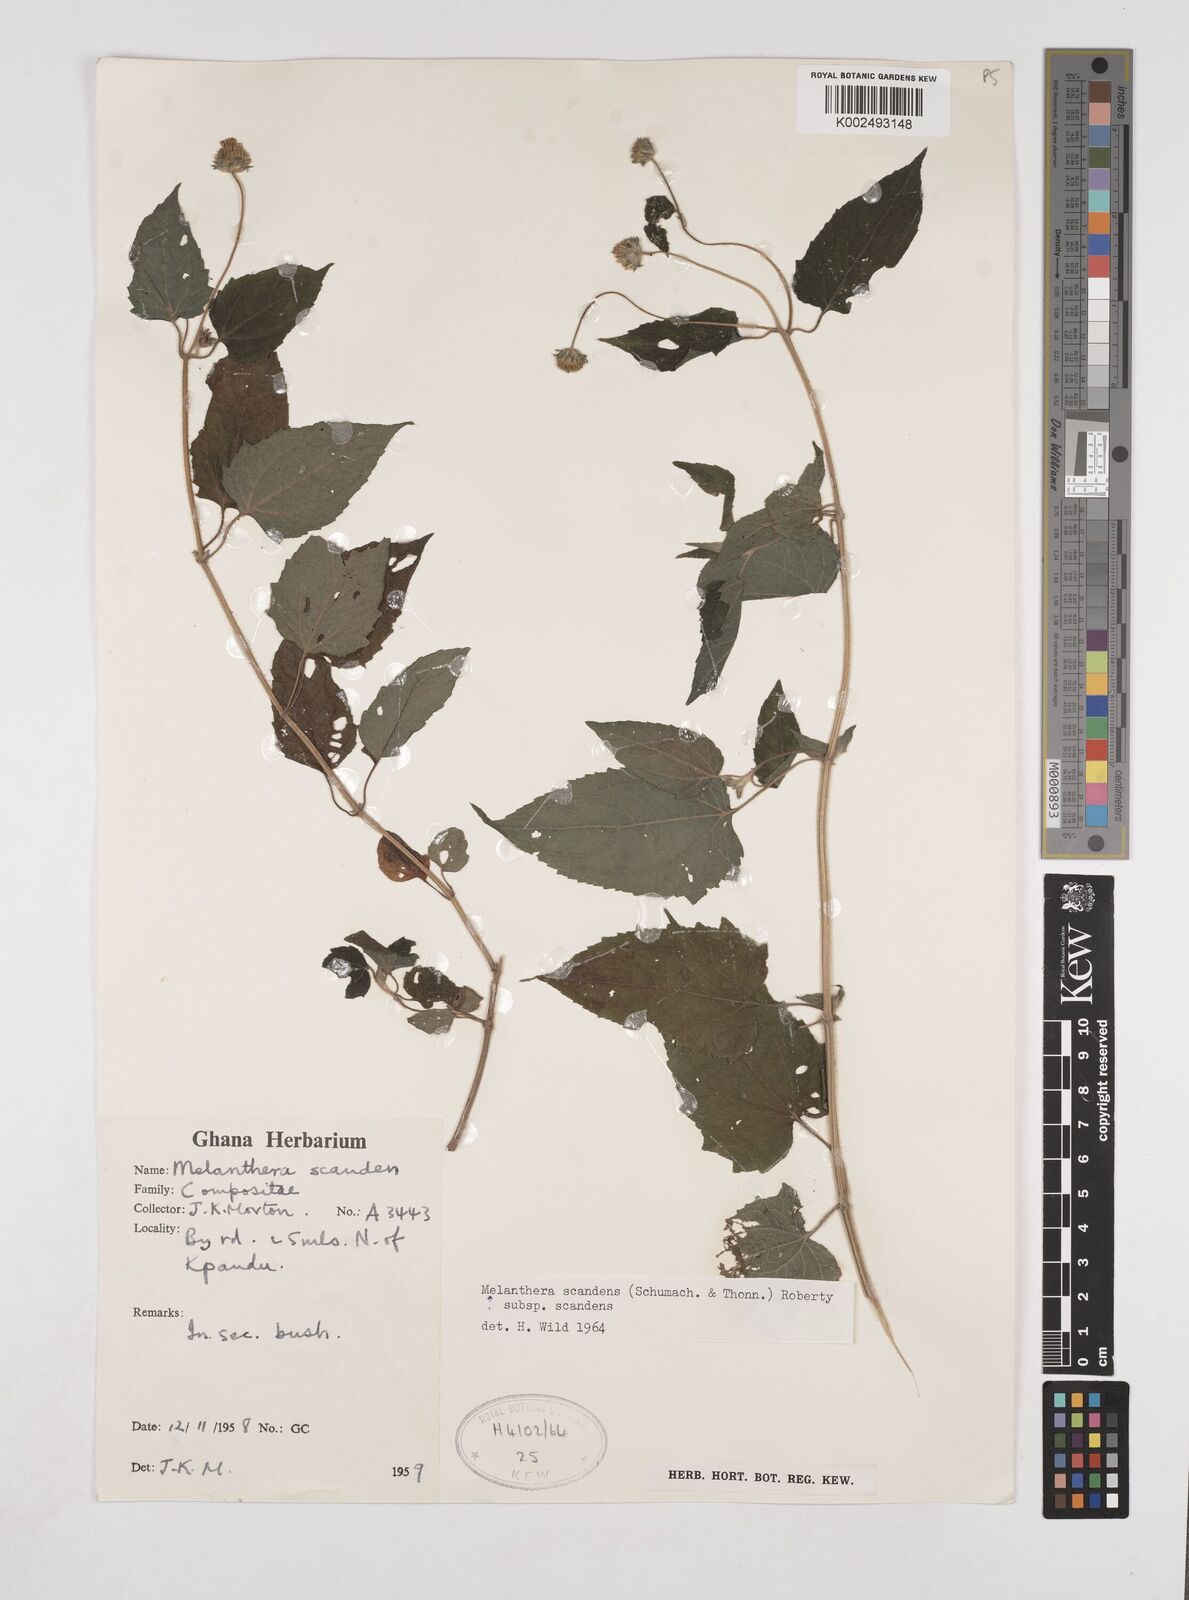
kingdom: Plantae
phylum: Tracheophyta
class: Magnoliopsida
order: Asterales
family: Asteraceae
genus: Lipotriche
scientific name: Lipotriche scandens
